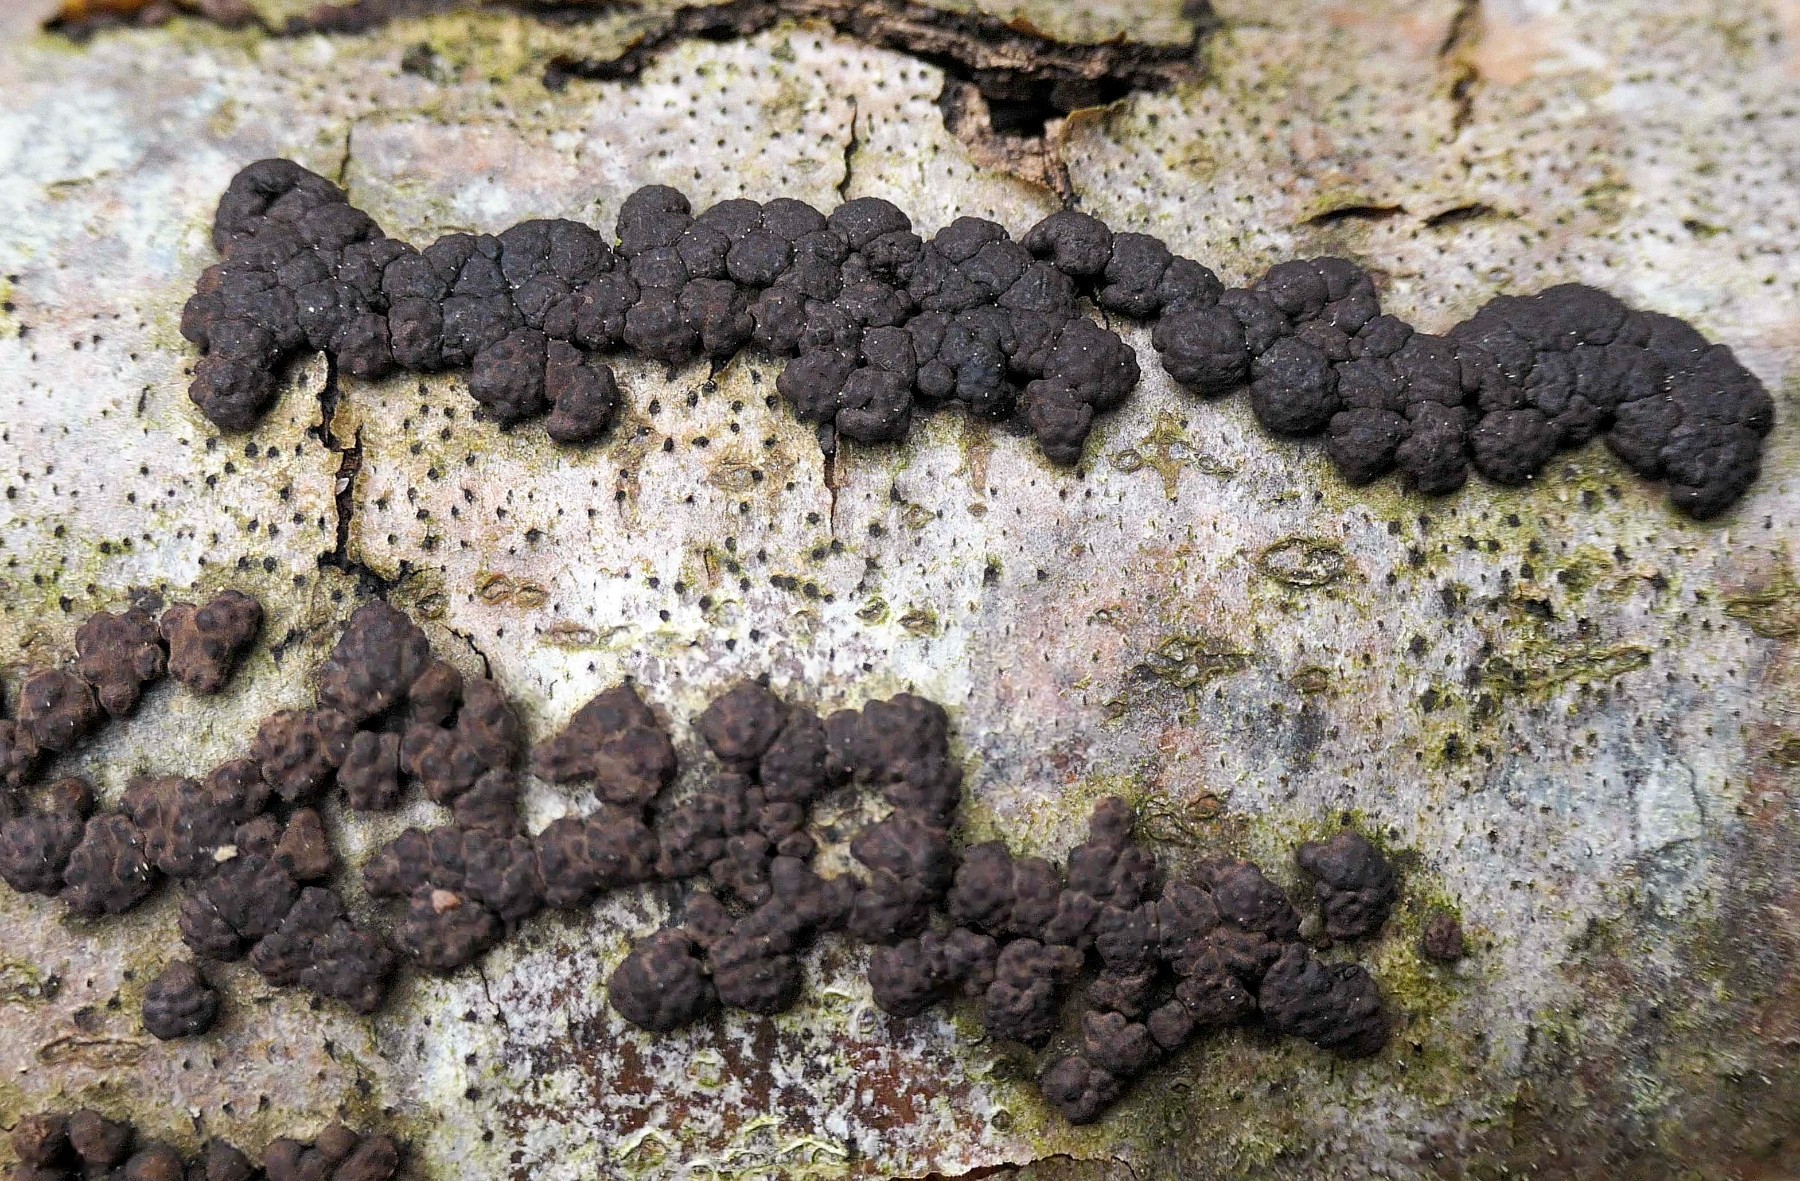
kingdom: Fungi
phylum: Ascomycota
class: Sordariomycetes
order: Xylariales
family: Hypoxylaceae
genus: Jackrogersella
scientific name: Jackrogersella cohaerens
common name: sammenflydende kulbær
